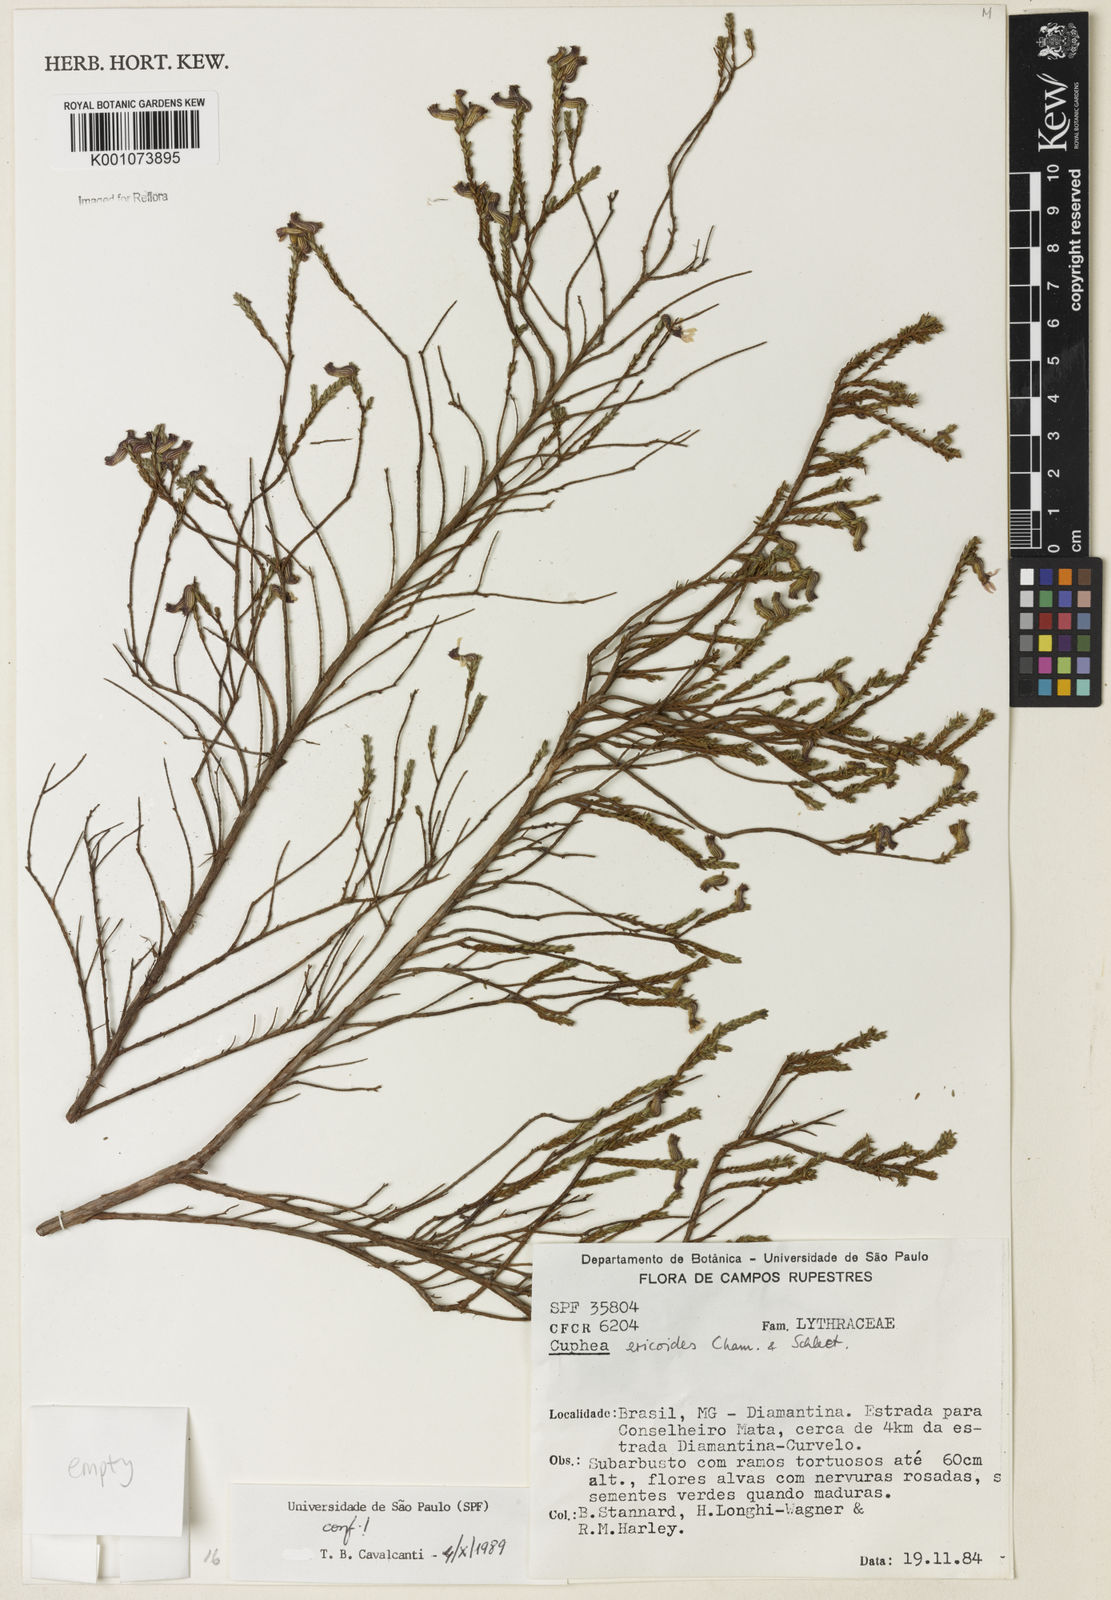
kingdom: Plantae
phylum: Tracheophyta
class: Magnoliopsida
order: Myrtales
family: Lythraceae
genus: Cuphea
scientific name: Cuphea ericoides
